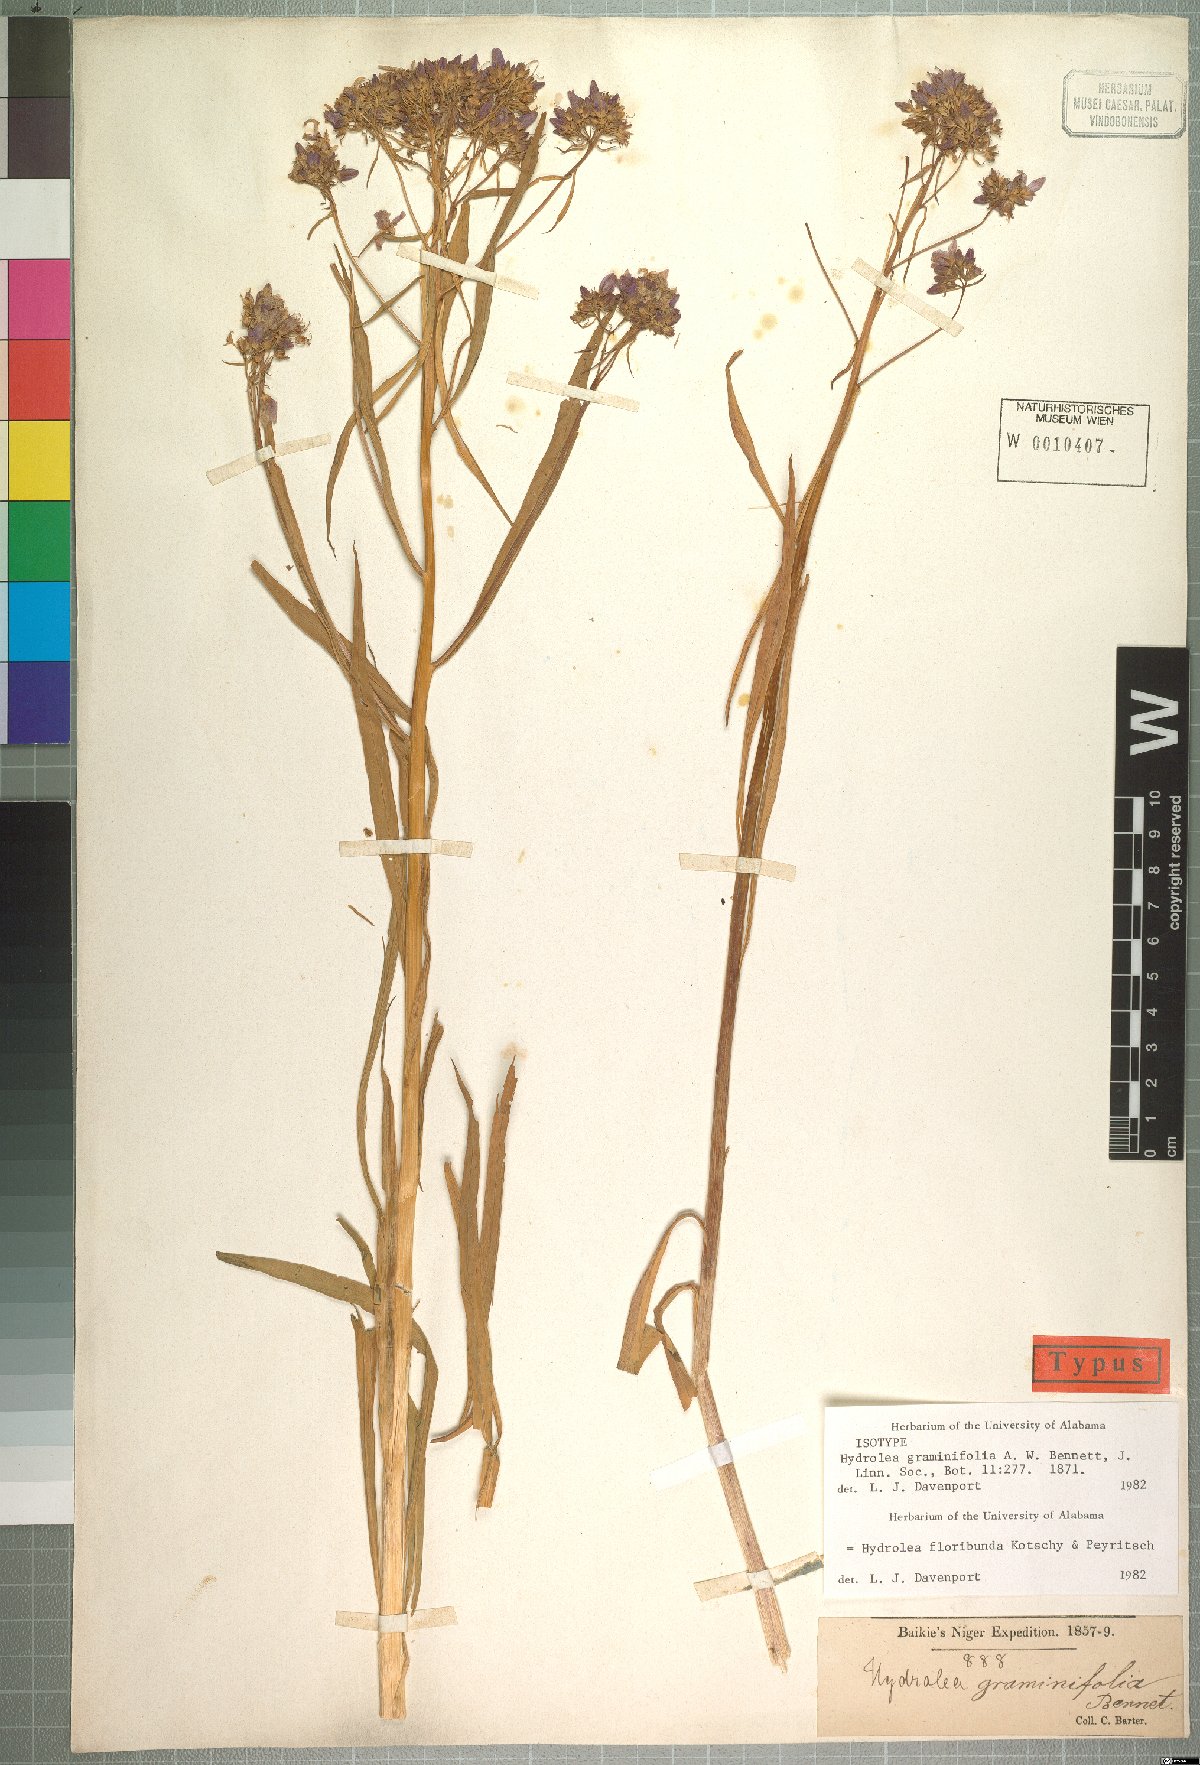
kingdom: Plantae
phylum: Tracheophyta
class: Magnoliopsida
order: Solanales
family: Hydroleaceae
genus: Hydrolea
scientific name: Hydrolea floribunda
